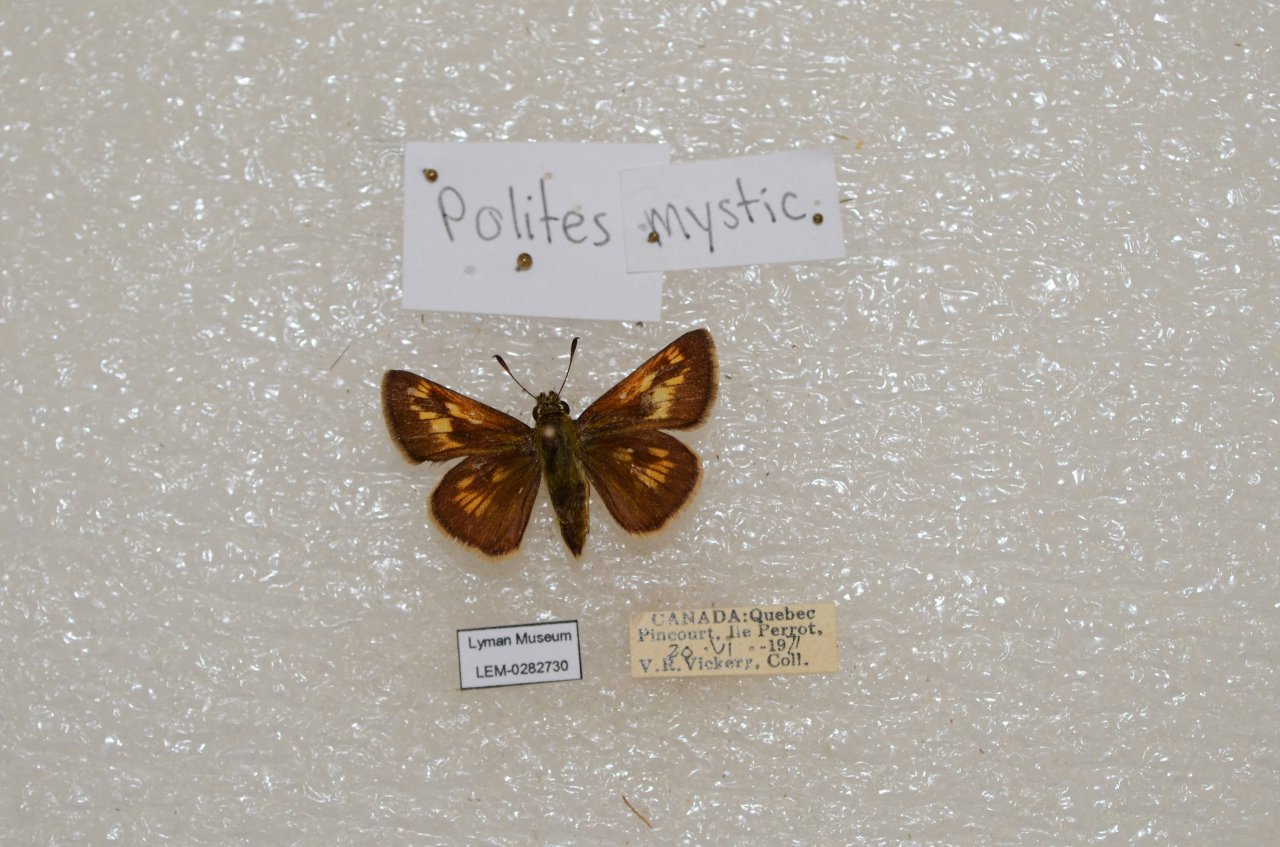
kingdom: Animalia
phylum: Arthropoda
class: Insecta
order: Lepidoptera
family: Hesperiidae
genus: Polites
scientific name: Polites
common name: Long Dash Skipper
